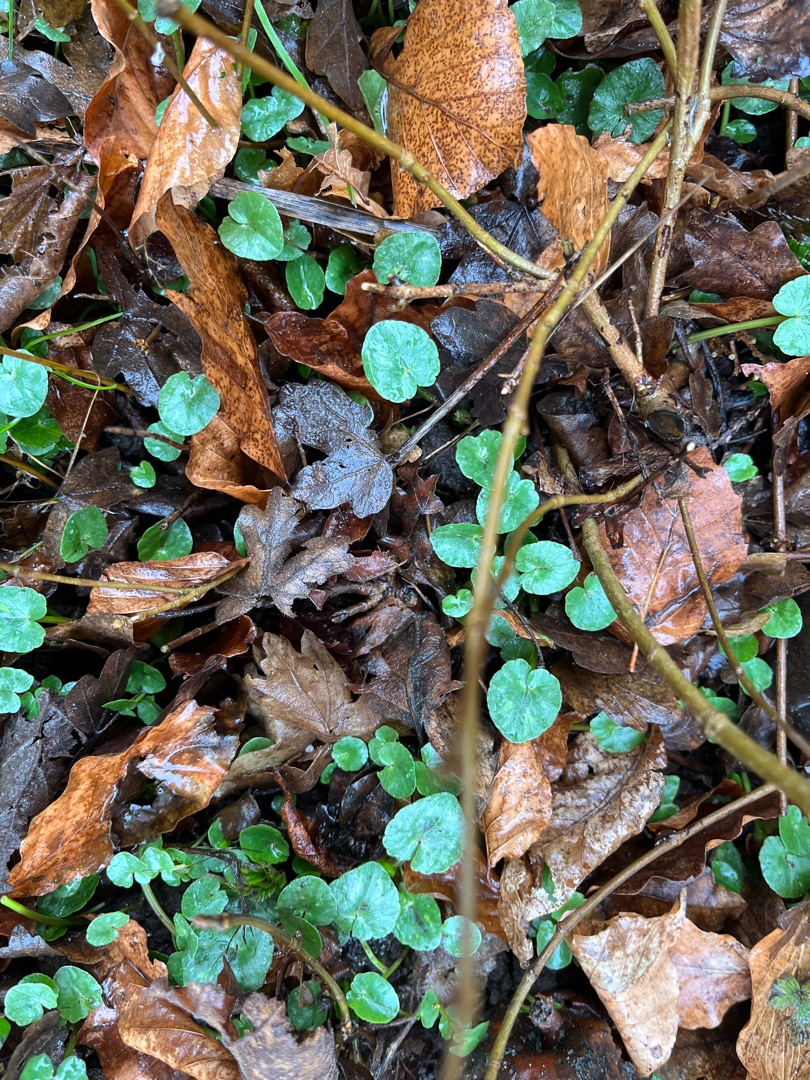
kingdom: Plantae
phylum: Tracheophyta
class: Magnoliopsida
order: Ranunculales
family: Ranunculaceae
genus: Ficaria
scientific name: Ficaria verna
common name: Vorterod
